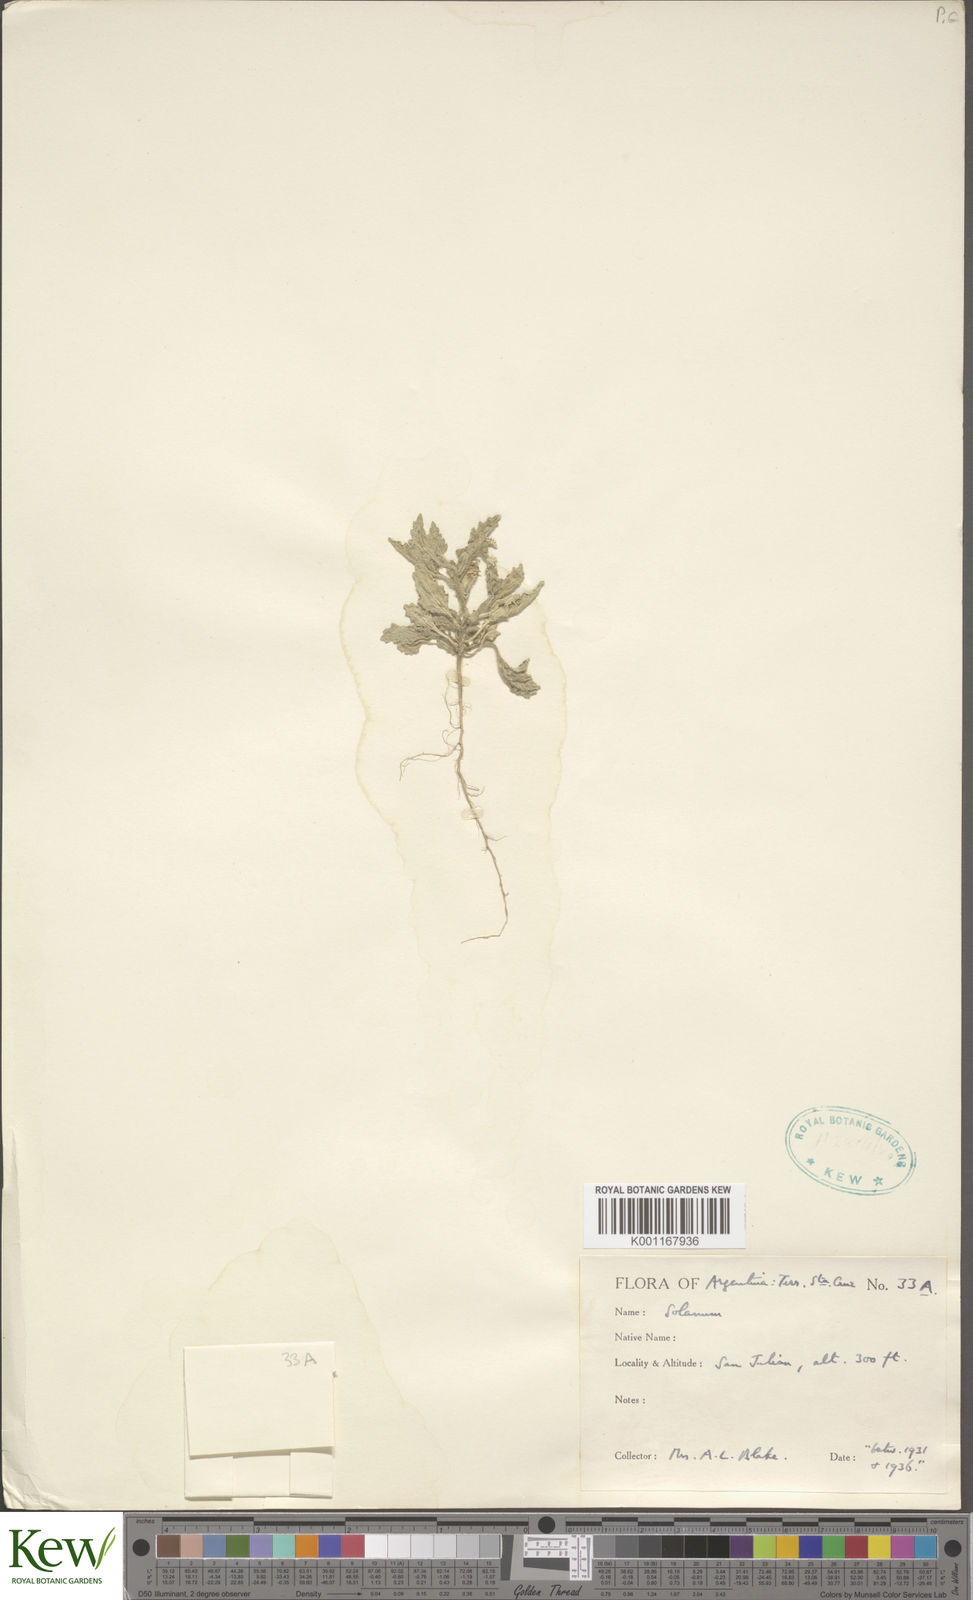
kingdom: Plantae
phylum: Tracheophyta
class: Magnoliopsida
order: Solanales
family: Solanaceae
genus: Solanum
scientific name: Solanum
